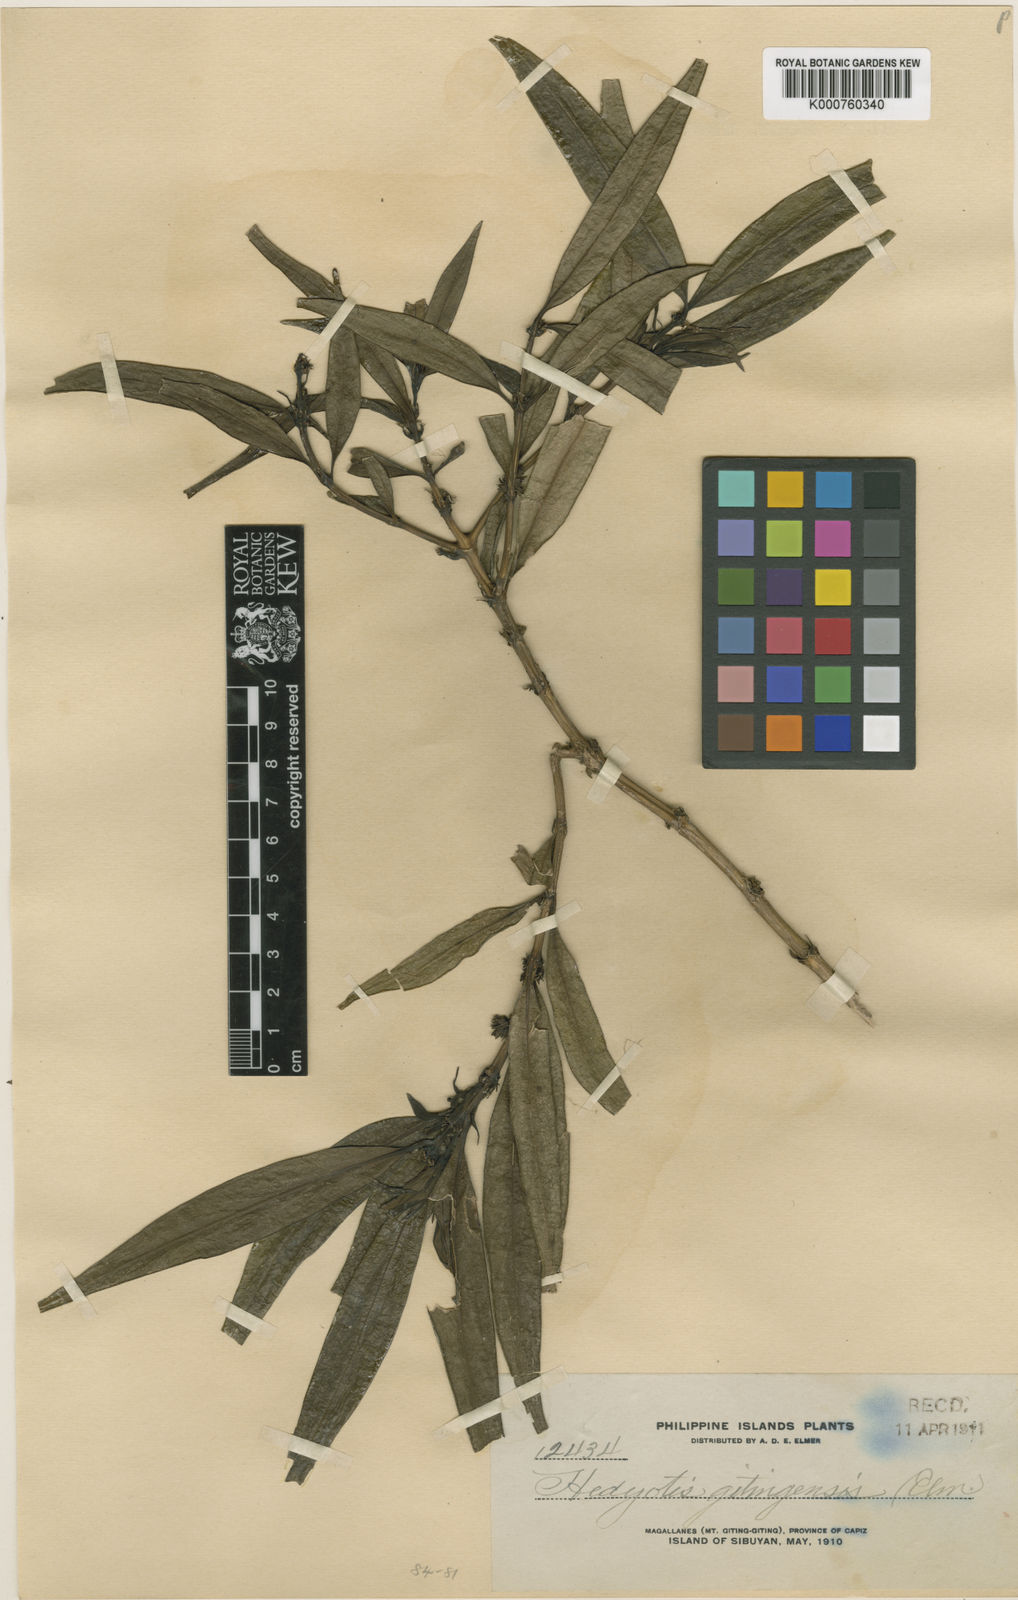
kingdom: Plantae
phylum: Tracheophyta
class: Magnoliopsida
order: Gentianales
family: Rubiaceae
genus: Hedyotis
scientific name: Hedyotis rigida
